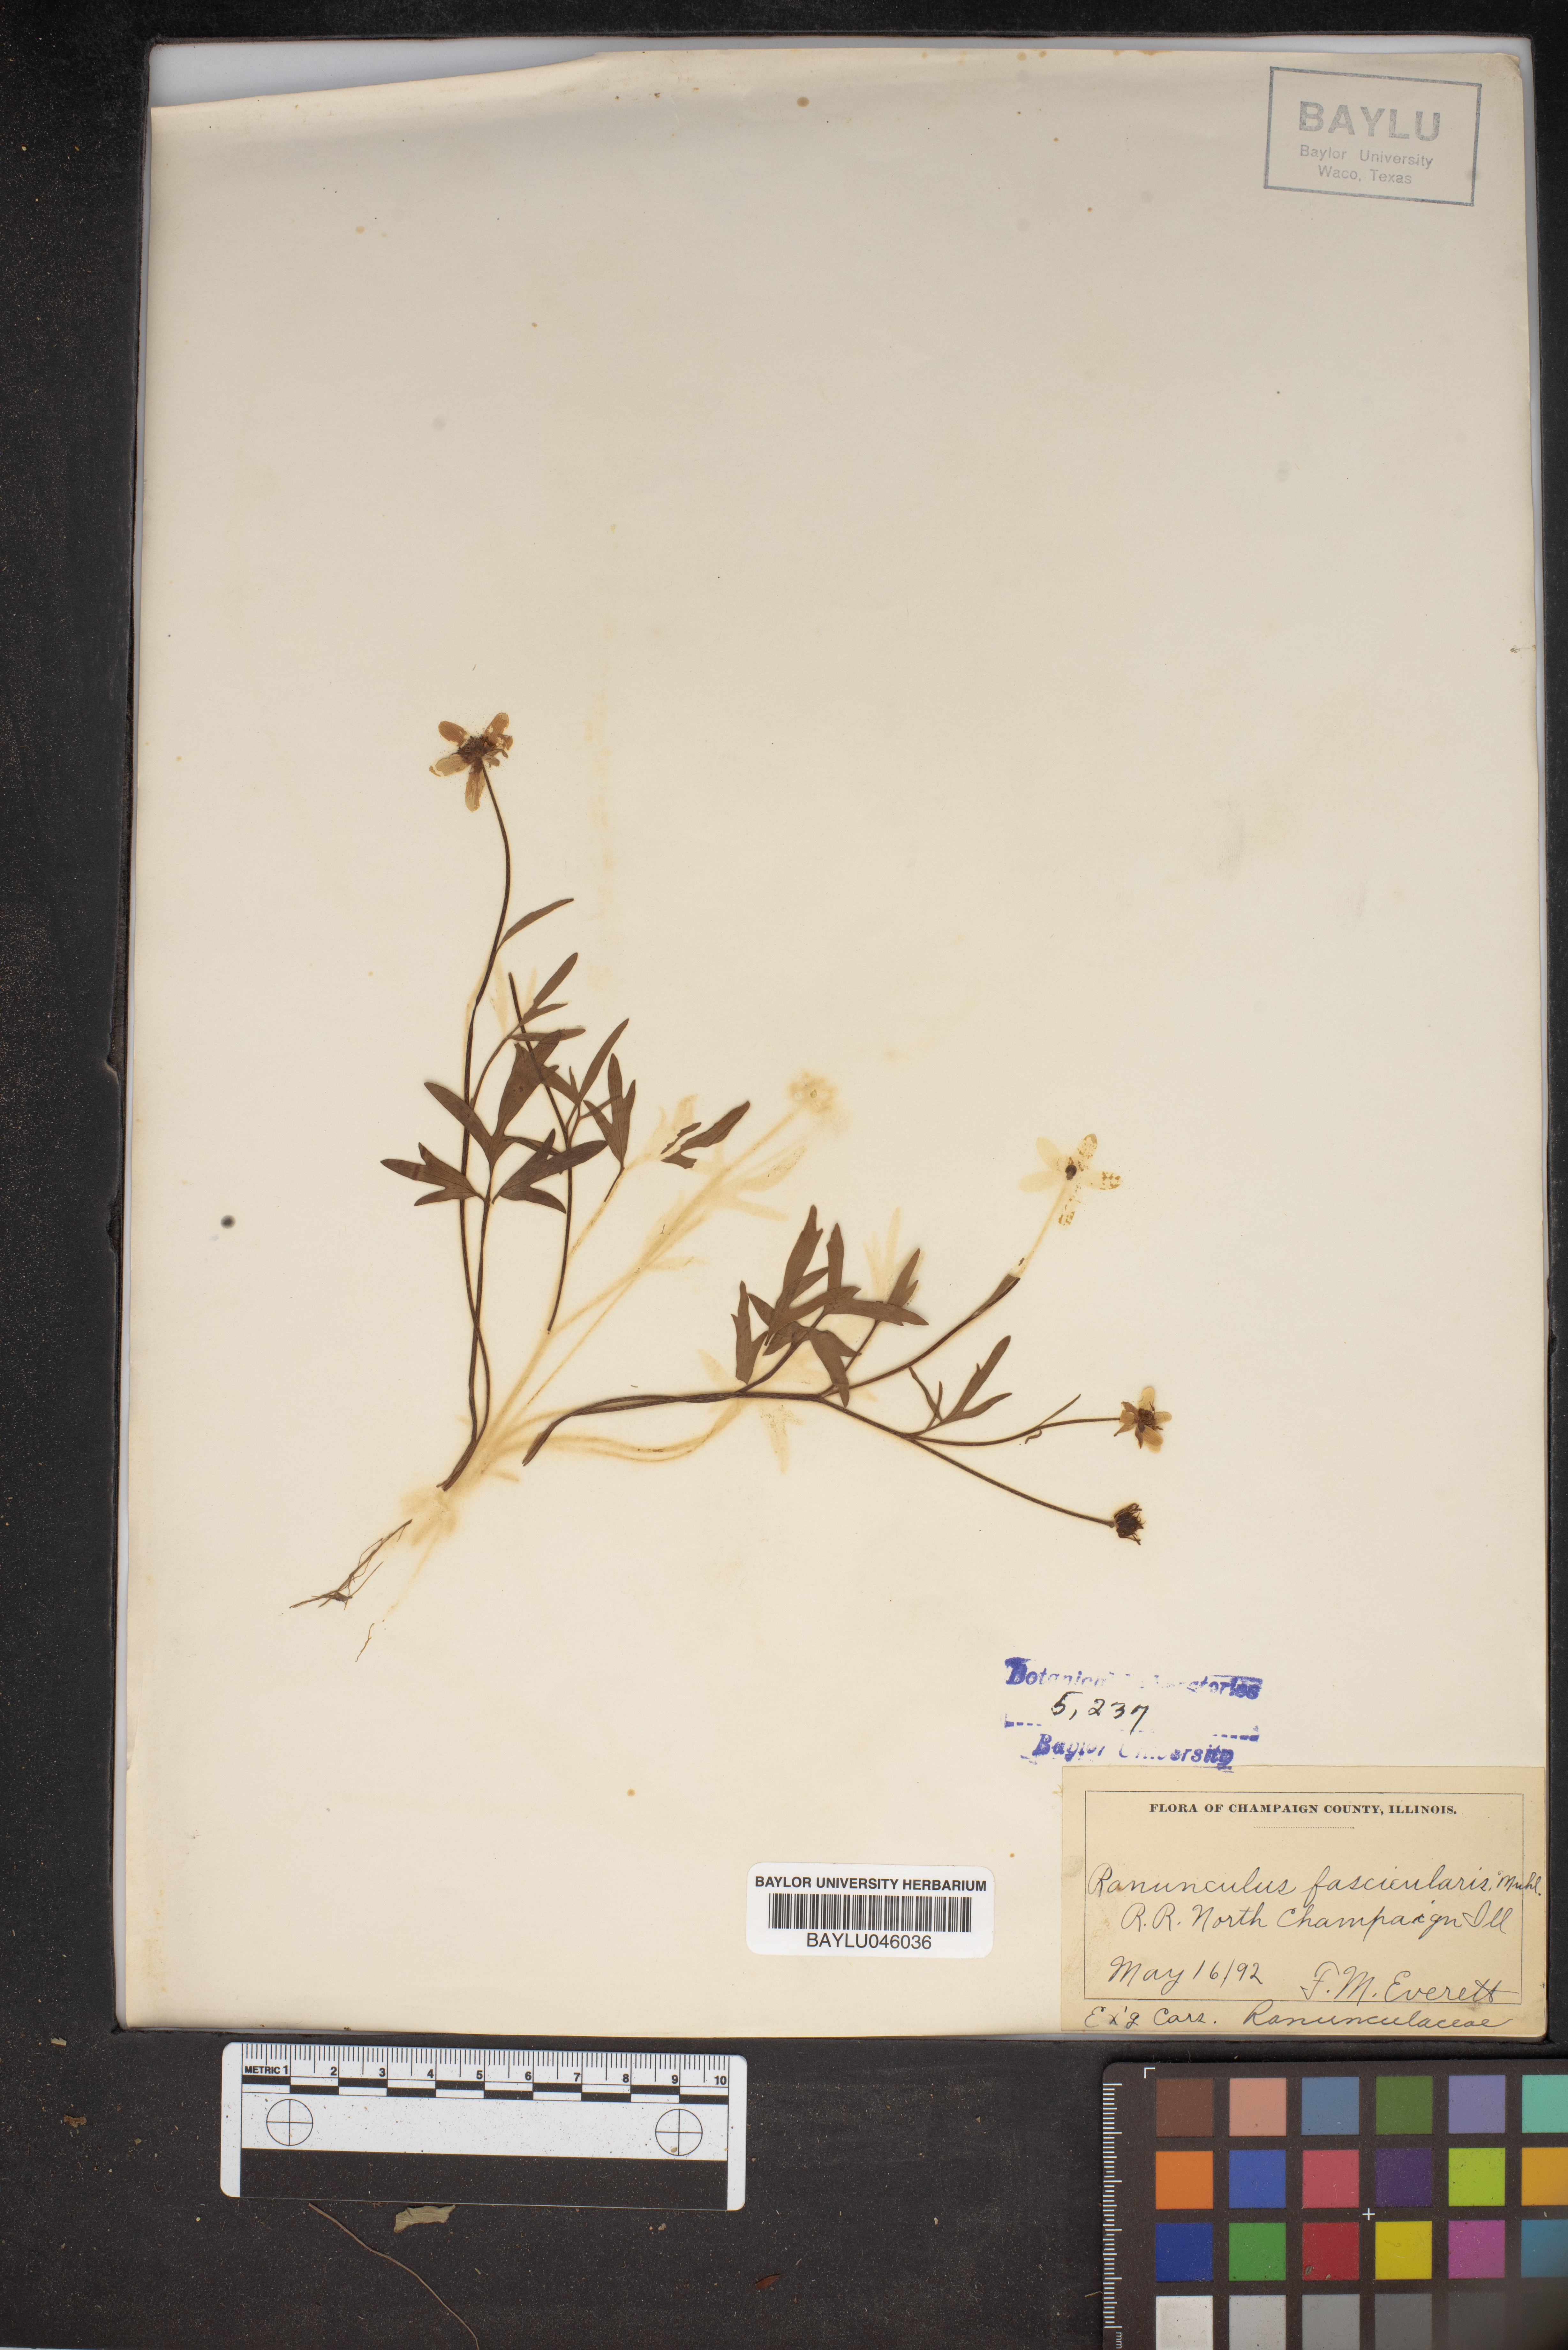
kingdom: Plantae
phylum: Tracheophyta
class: Magnoliopsida
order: Ranunculales
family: Ranunculaceae
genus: Ranunculus
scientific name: Ranunculus fascicularis
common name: Early buttercup
